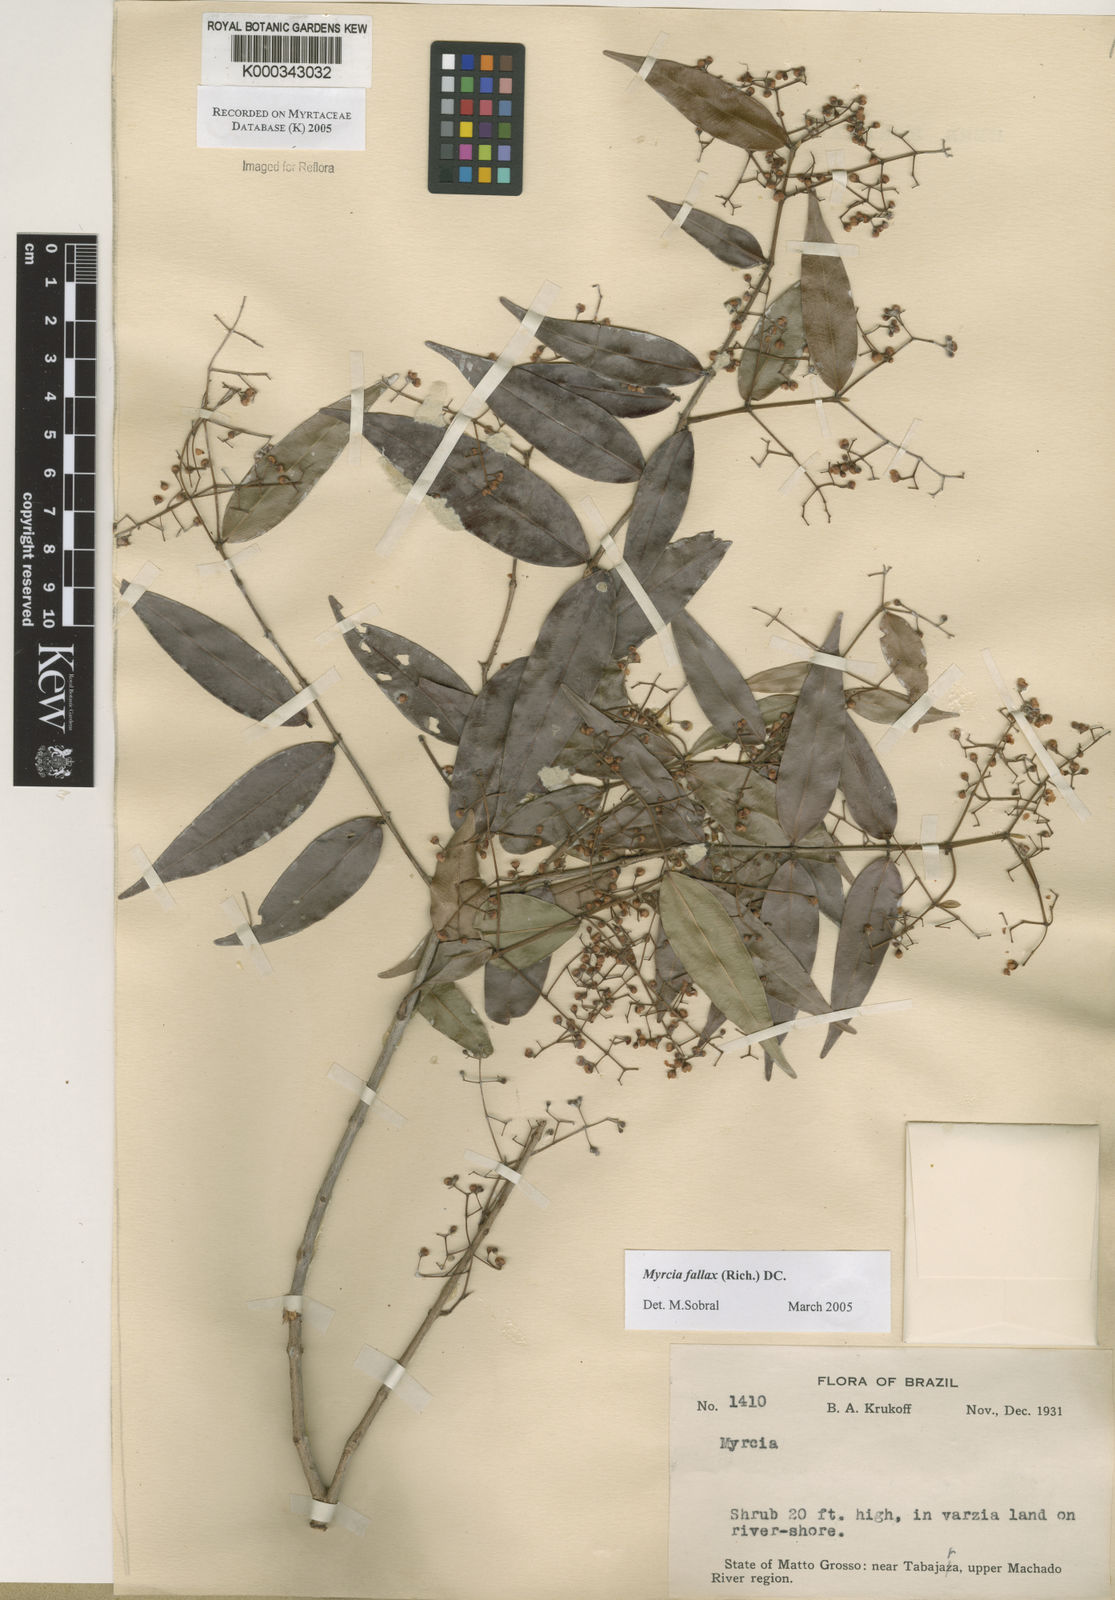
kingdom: Plantae
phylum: Tracheophyta
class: Magnoliopsida
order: Myrtales
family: Myrtaceae
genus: Myrcia
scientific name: Myrcia splendens
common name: Surinam cherry
